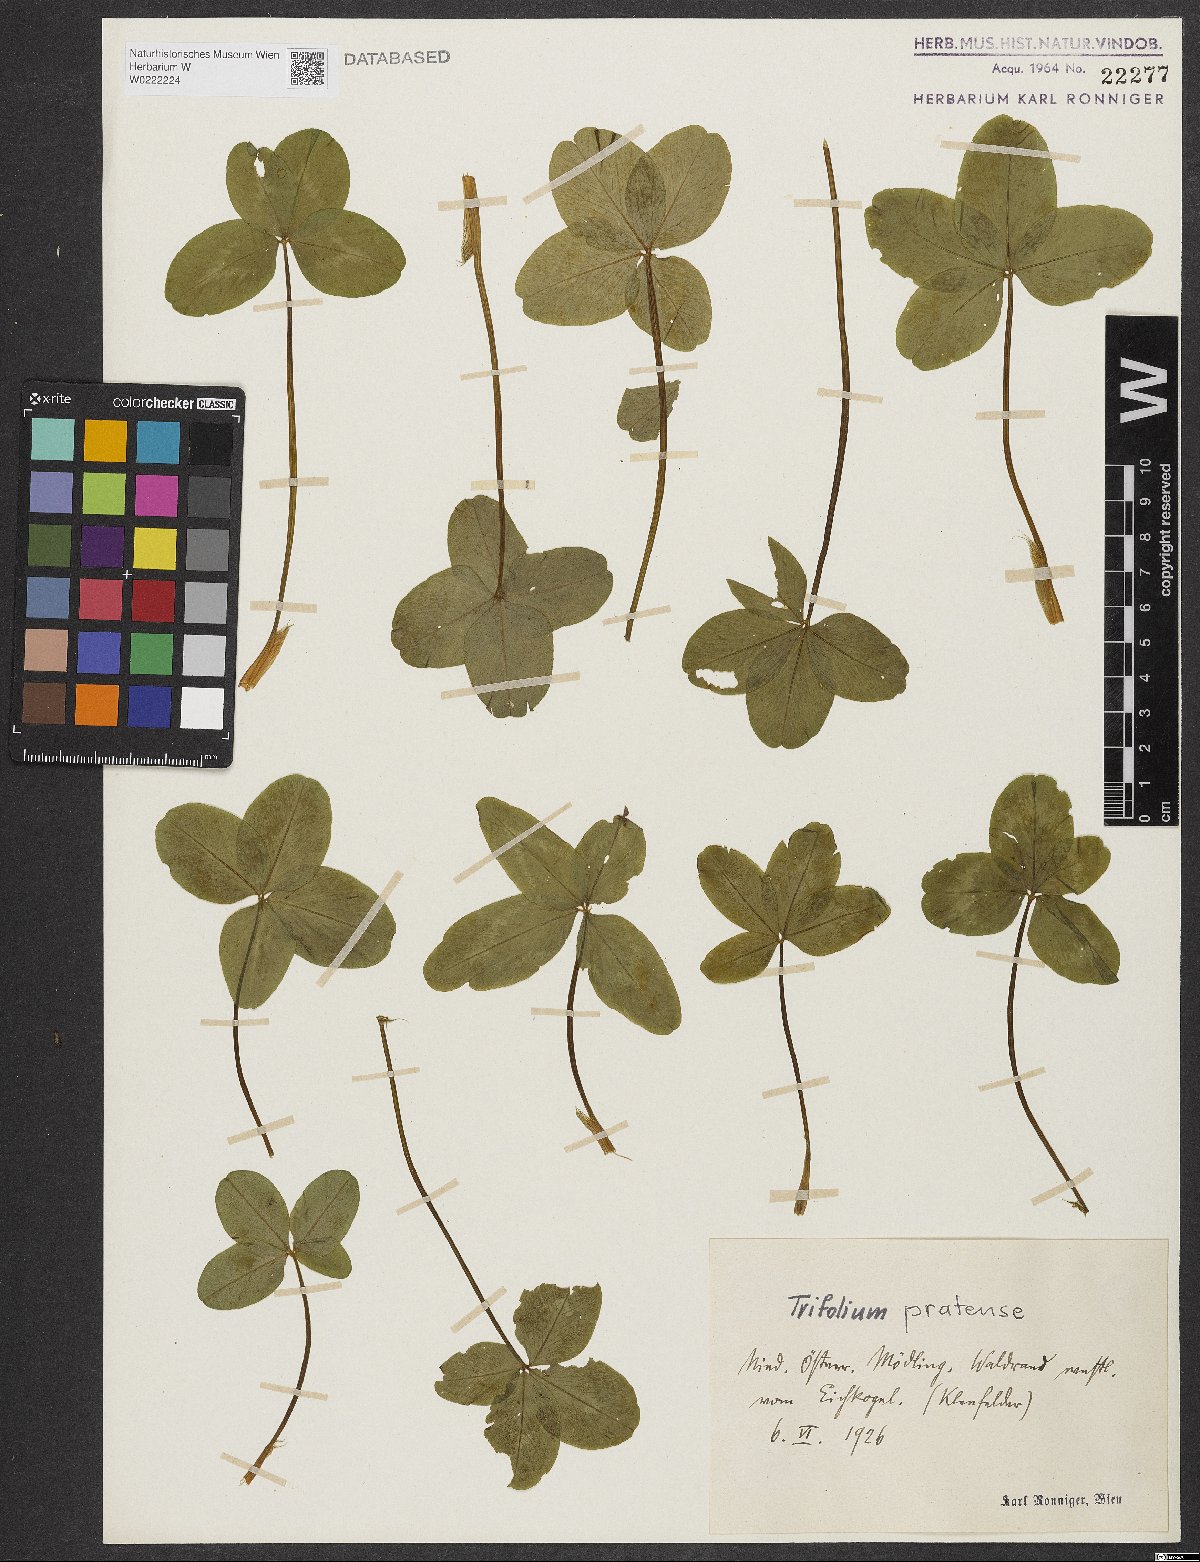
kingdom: Plantae
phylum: Tracheophyta
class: Magnoliopsida
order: Fabales
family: Fabaceae
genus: Trifolium
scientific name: Trifolium pratense
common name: Red clover
